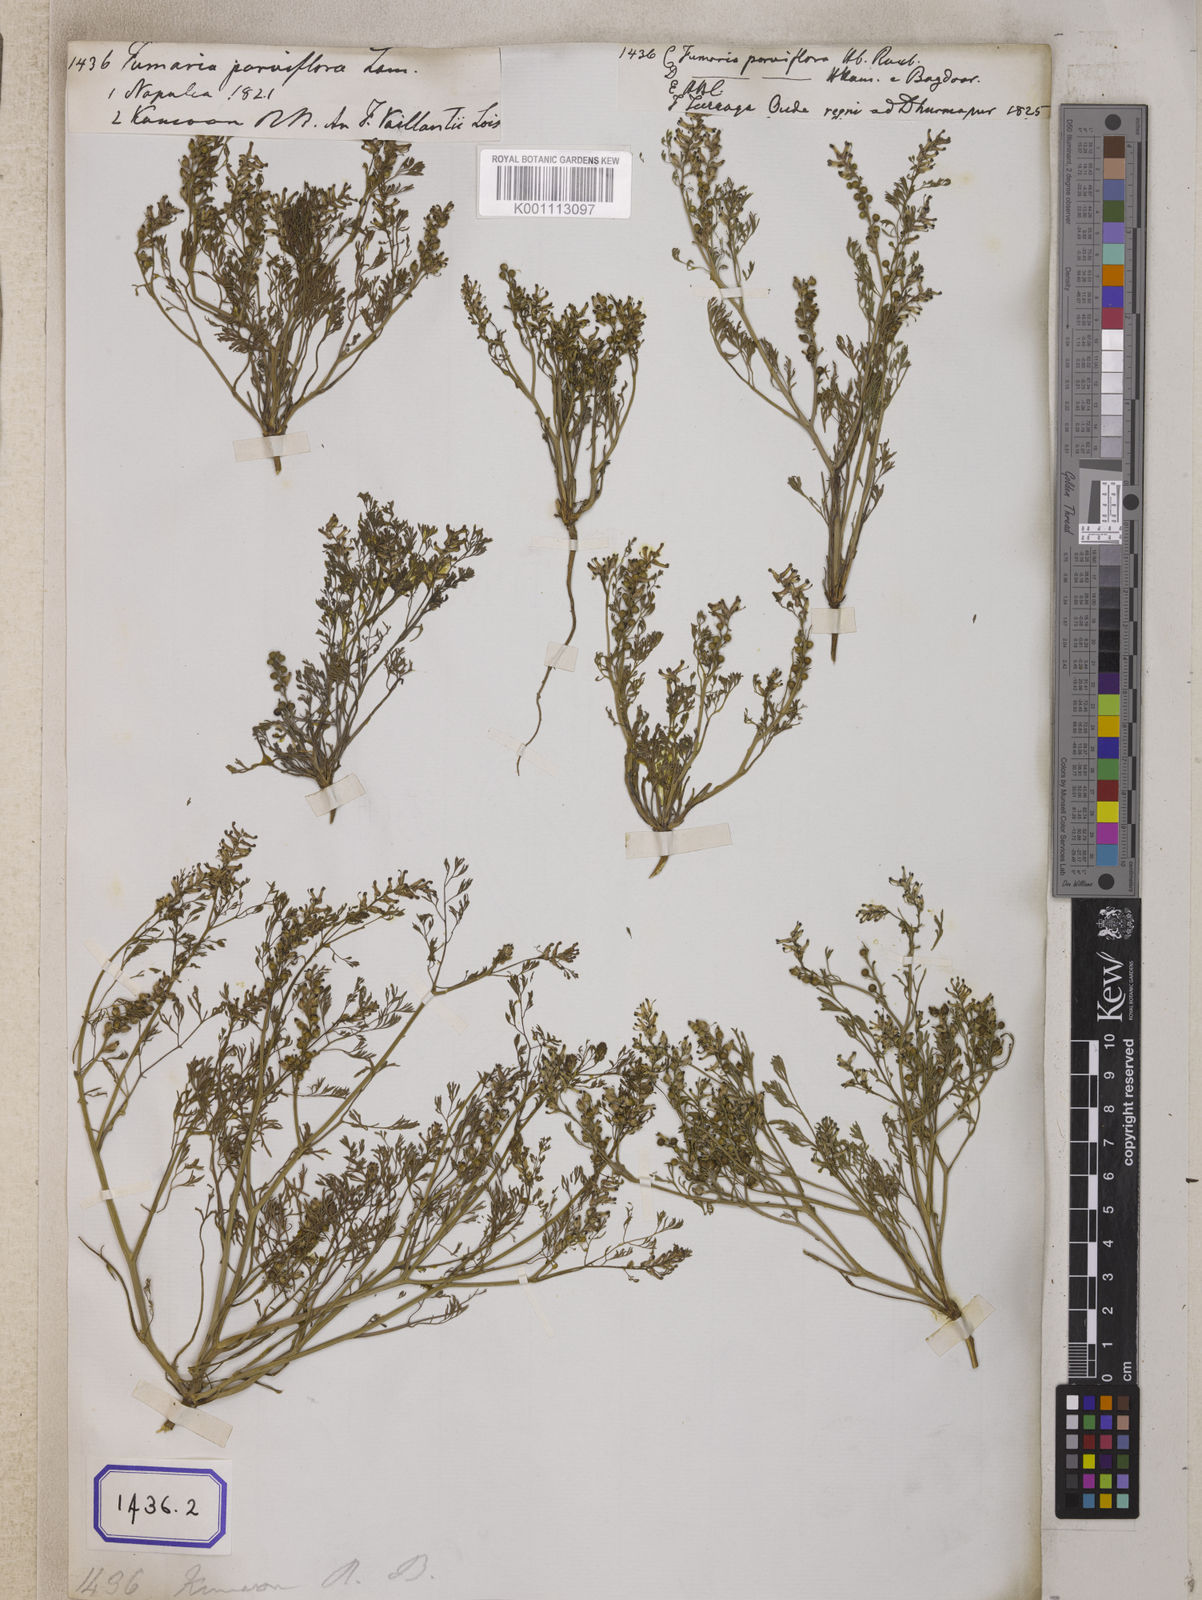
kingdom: Plantae
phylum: Tracheophyta
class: Magnoliopsida
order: Ranunculales
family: Papaveraceae
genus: Fumaria
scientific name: Fumaria parviflora
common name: Fine-leaved fumitory
